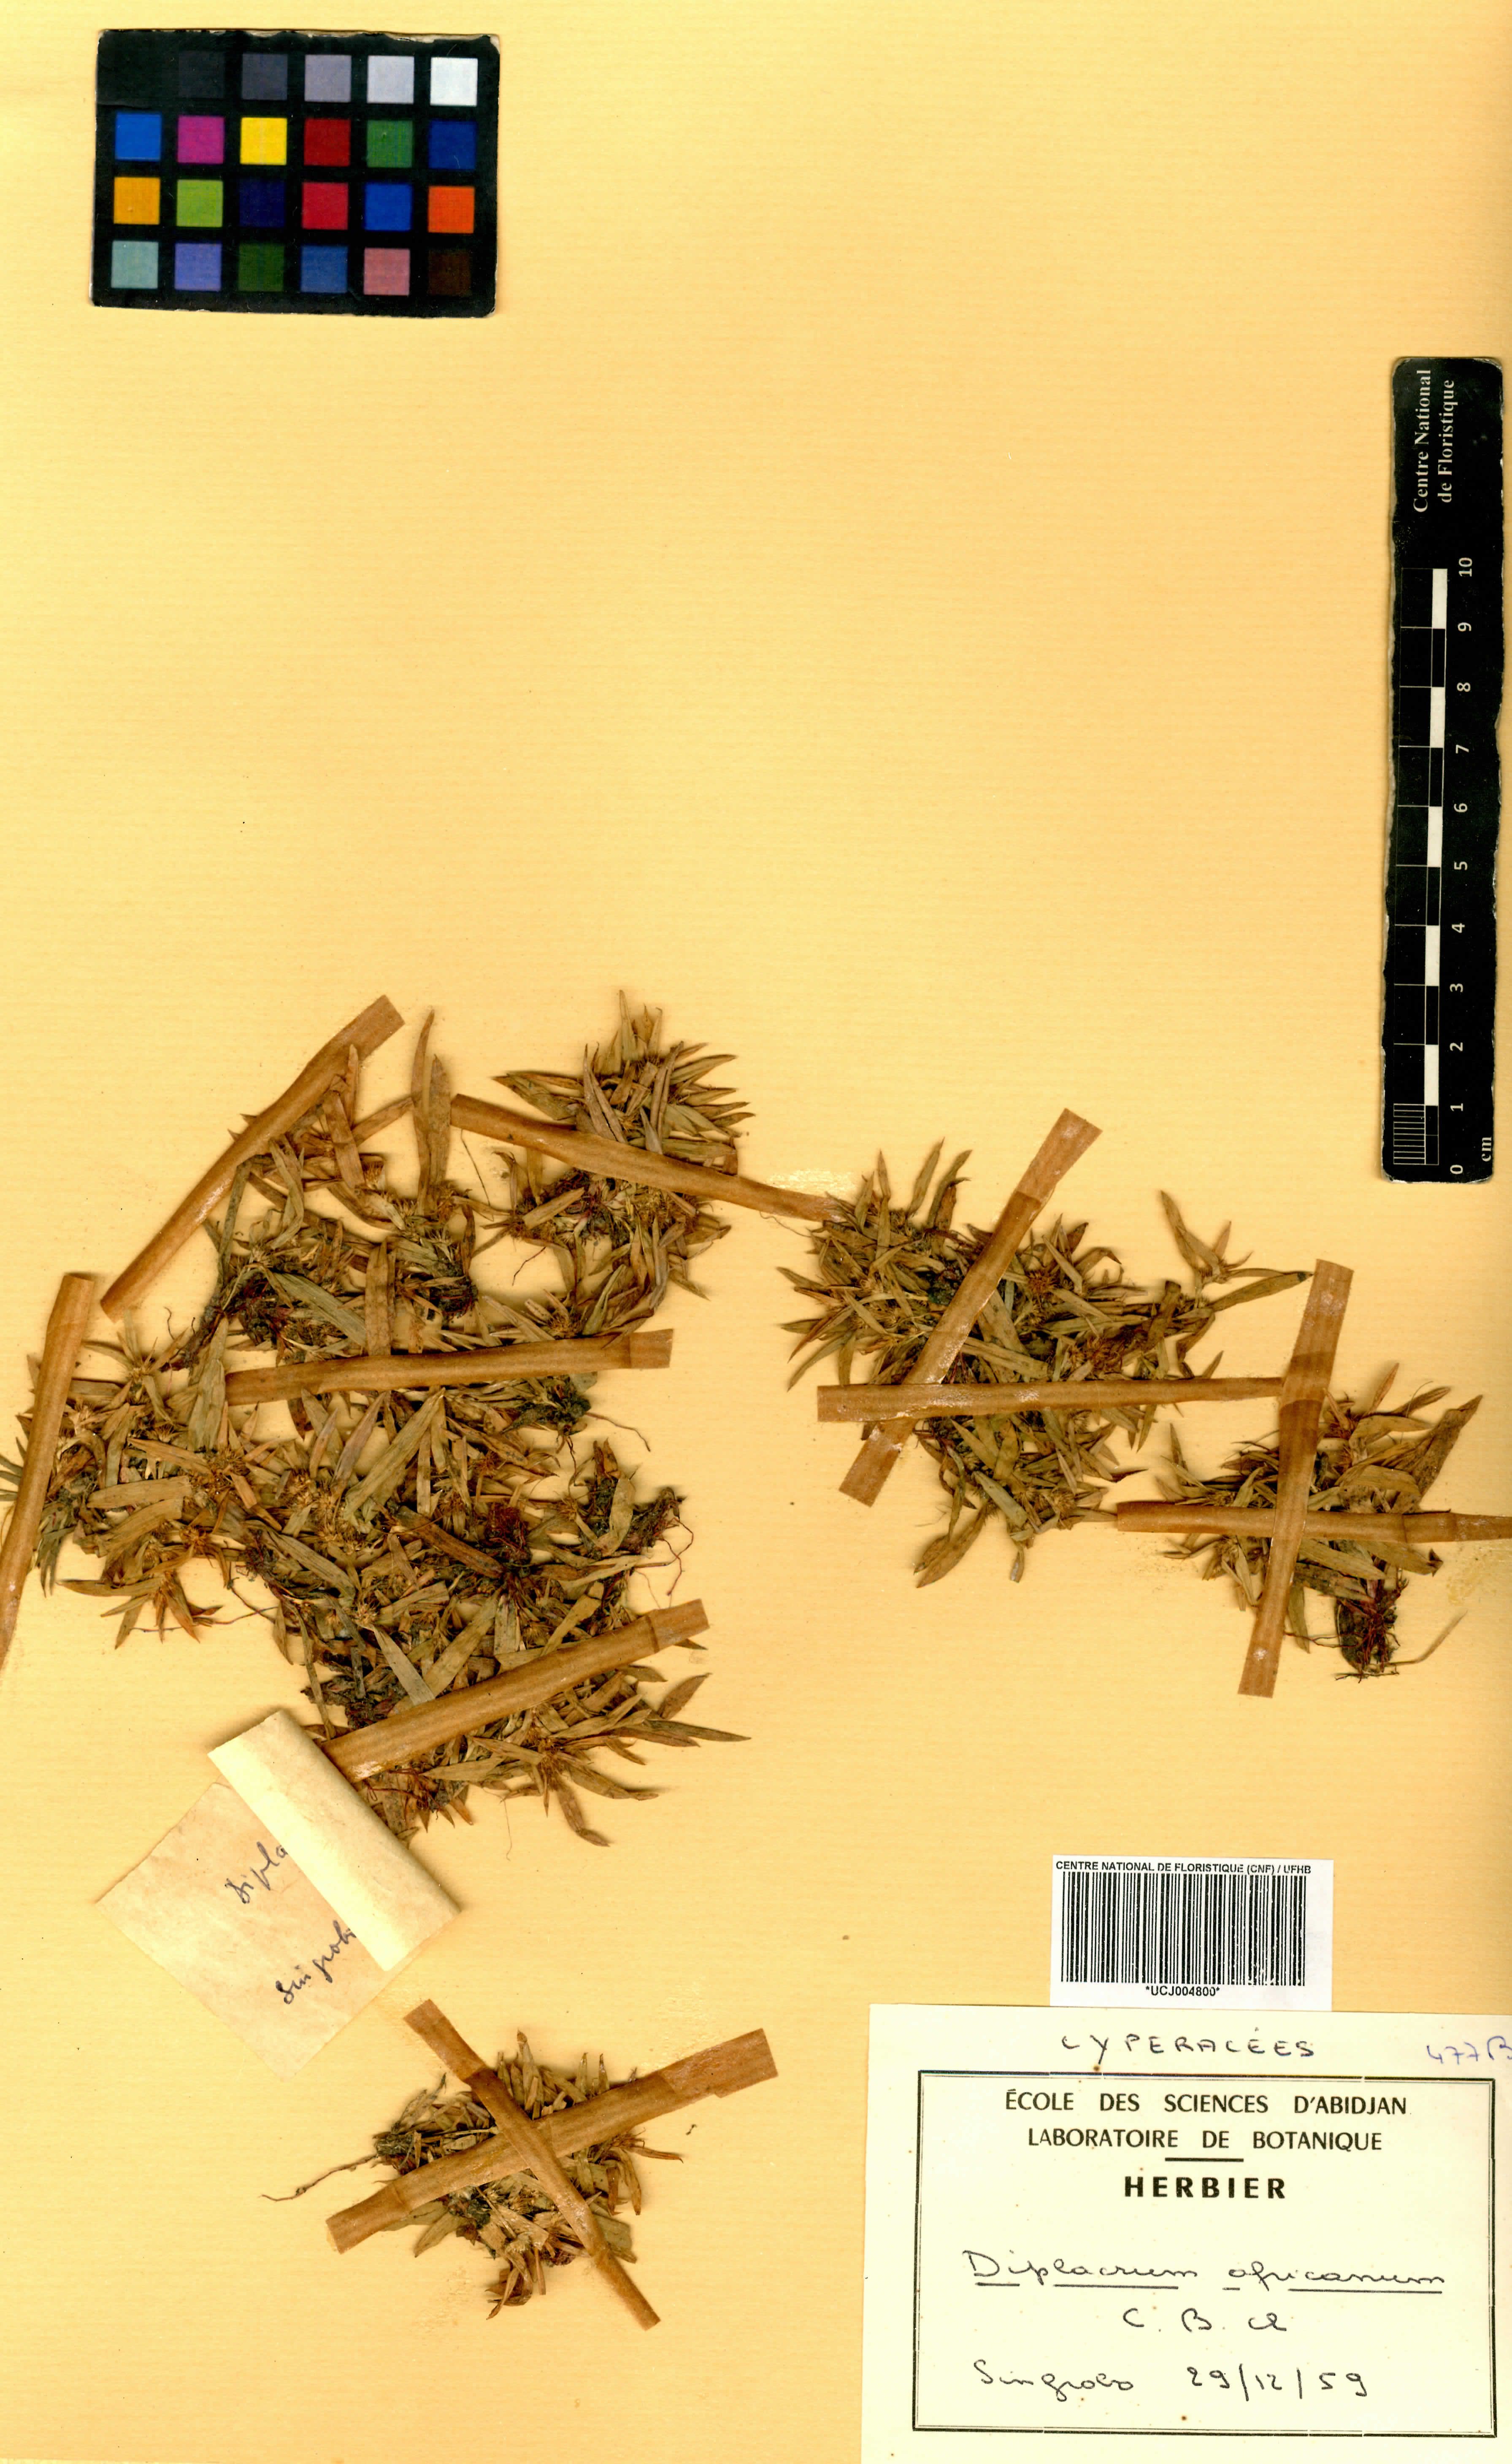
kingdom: Plantae
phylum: Tracheophyta
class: Liliopsida
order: Poales
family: Cyperaceae
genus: Diplacrum
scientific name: Diplacrum africanum
